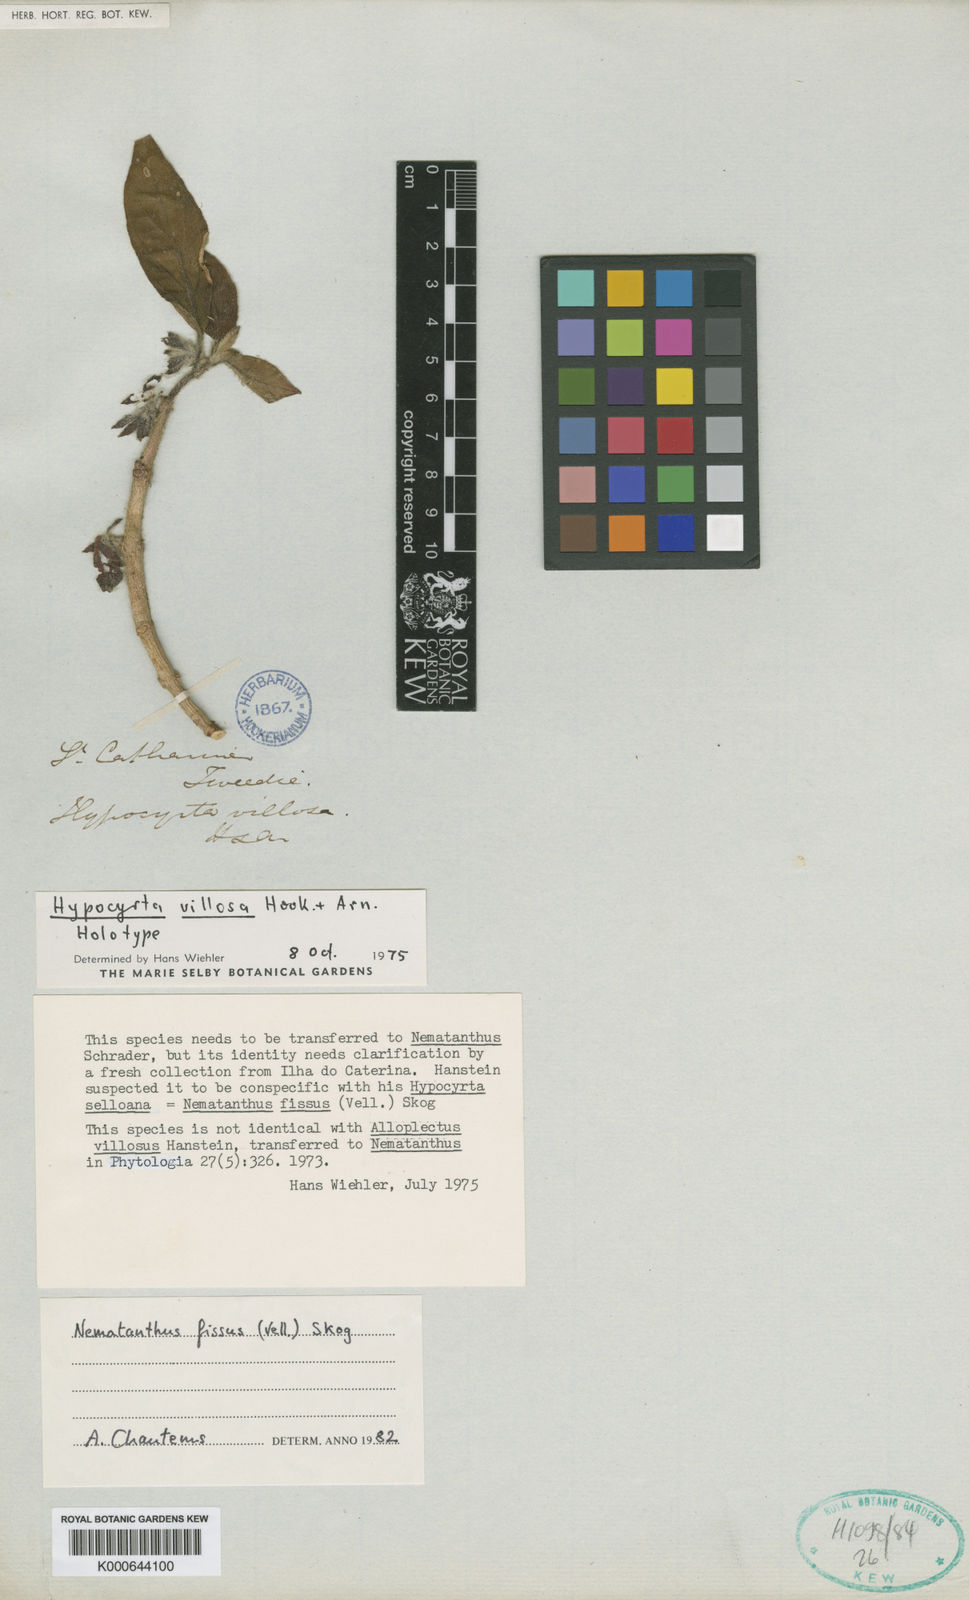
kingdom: Plantae
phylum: Tracheophyta
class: Magnoliopsida
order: Lamiales
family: Gesneriaceae
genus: Nematanthus
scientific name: Nematanthus fissus
